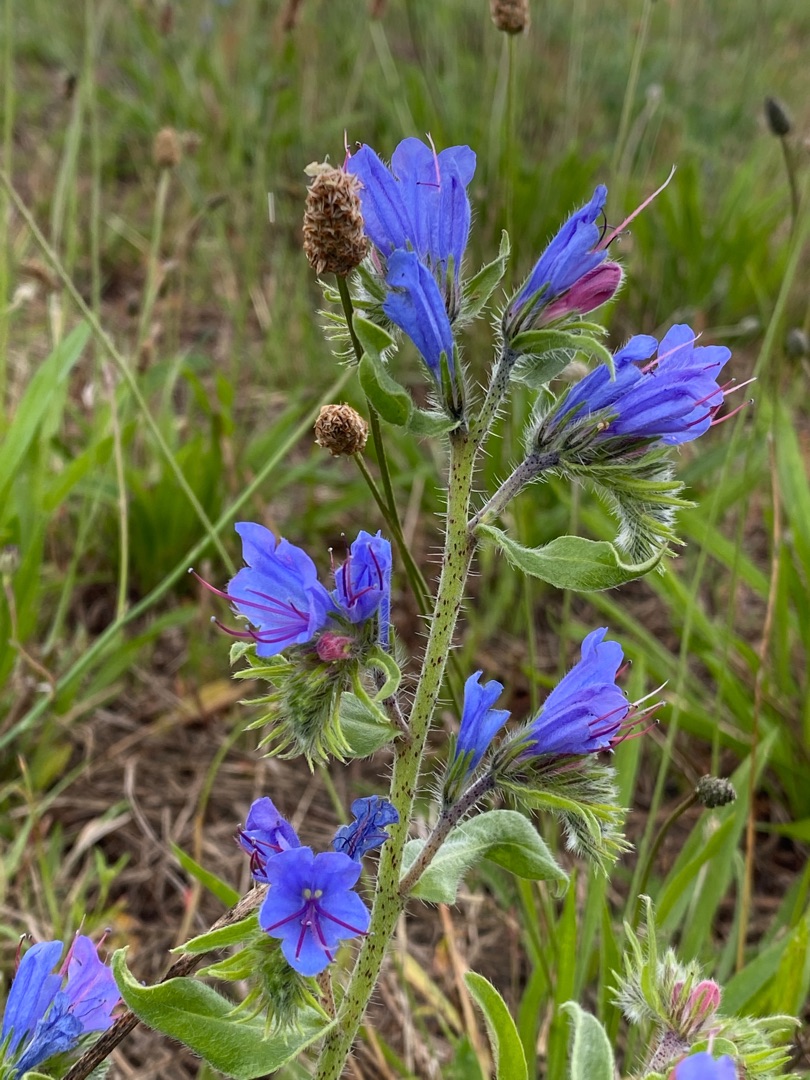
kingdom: Plantae
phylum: Tracheophyta
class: Magnoliopsida
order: Boraginales
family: Boraginaceae
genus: Echium
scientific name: Echium vulgare
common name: Slangehoved
